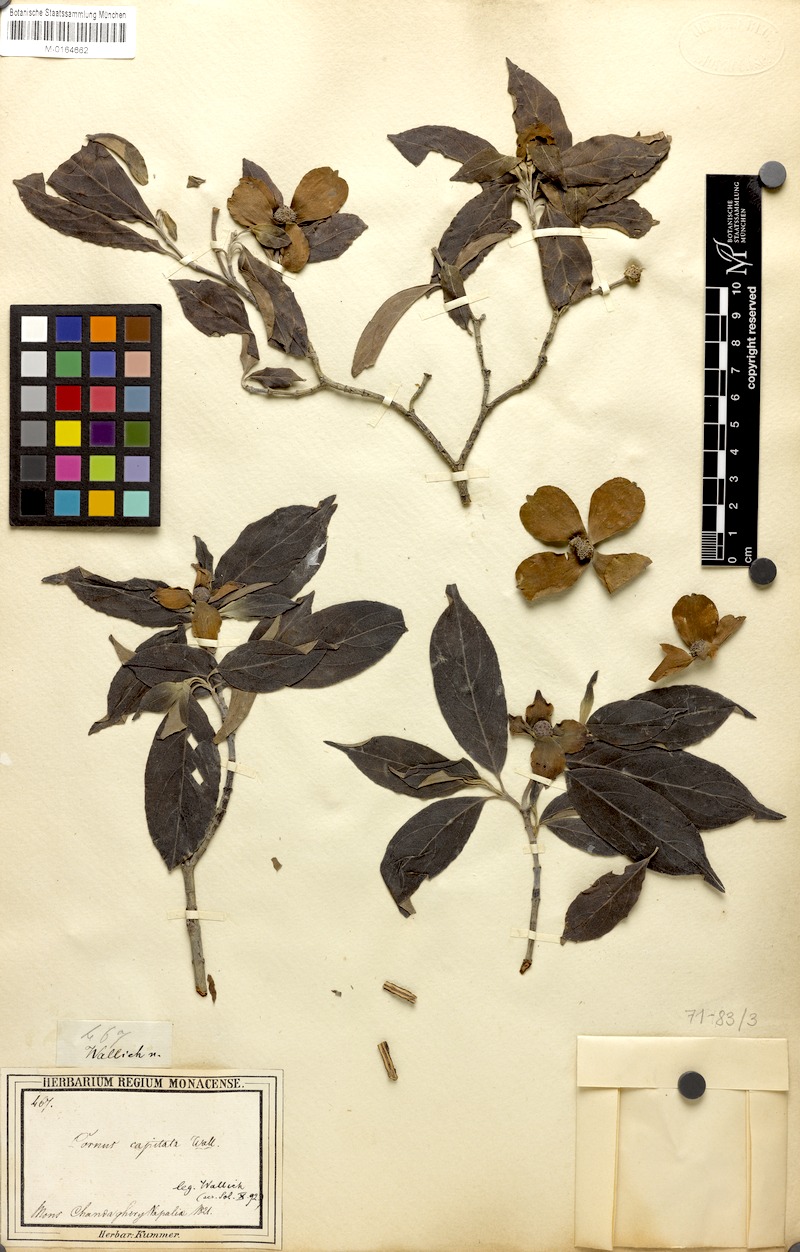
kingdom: Plantae
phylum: Tracheophyta
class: Magnoliopsida
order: Cornales
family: Cornaceae
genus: Cornus
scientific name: Cornus capitata
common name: Bentham's cornel
